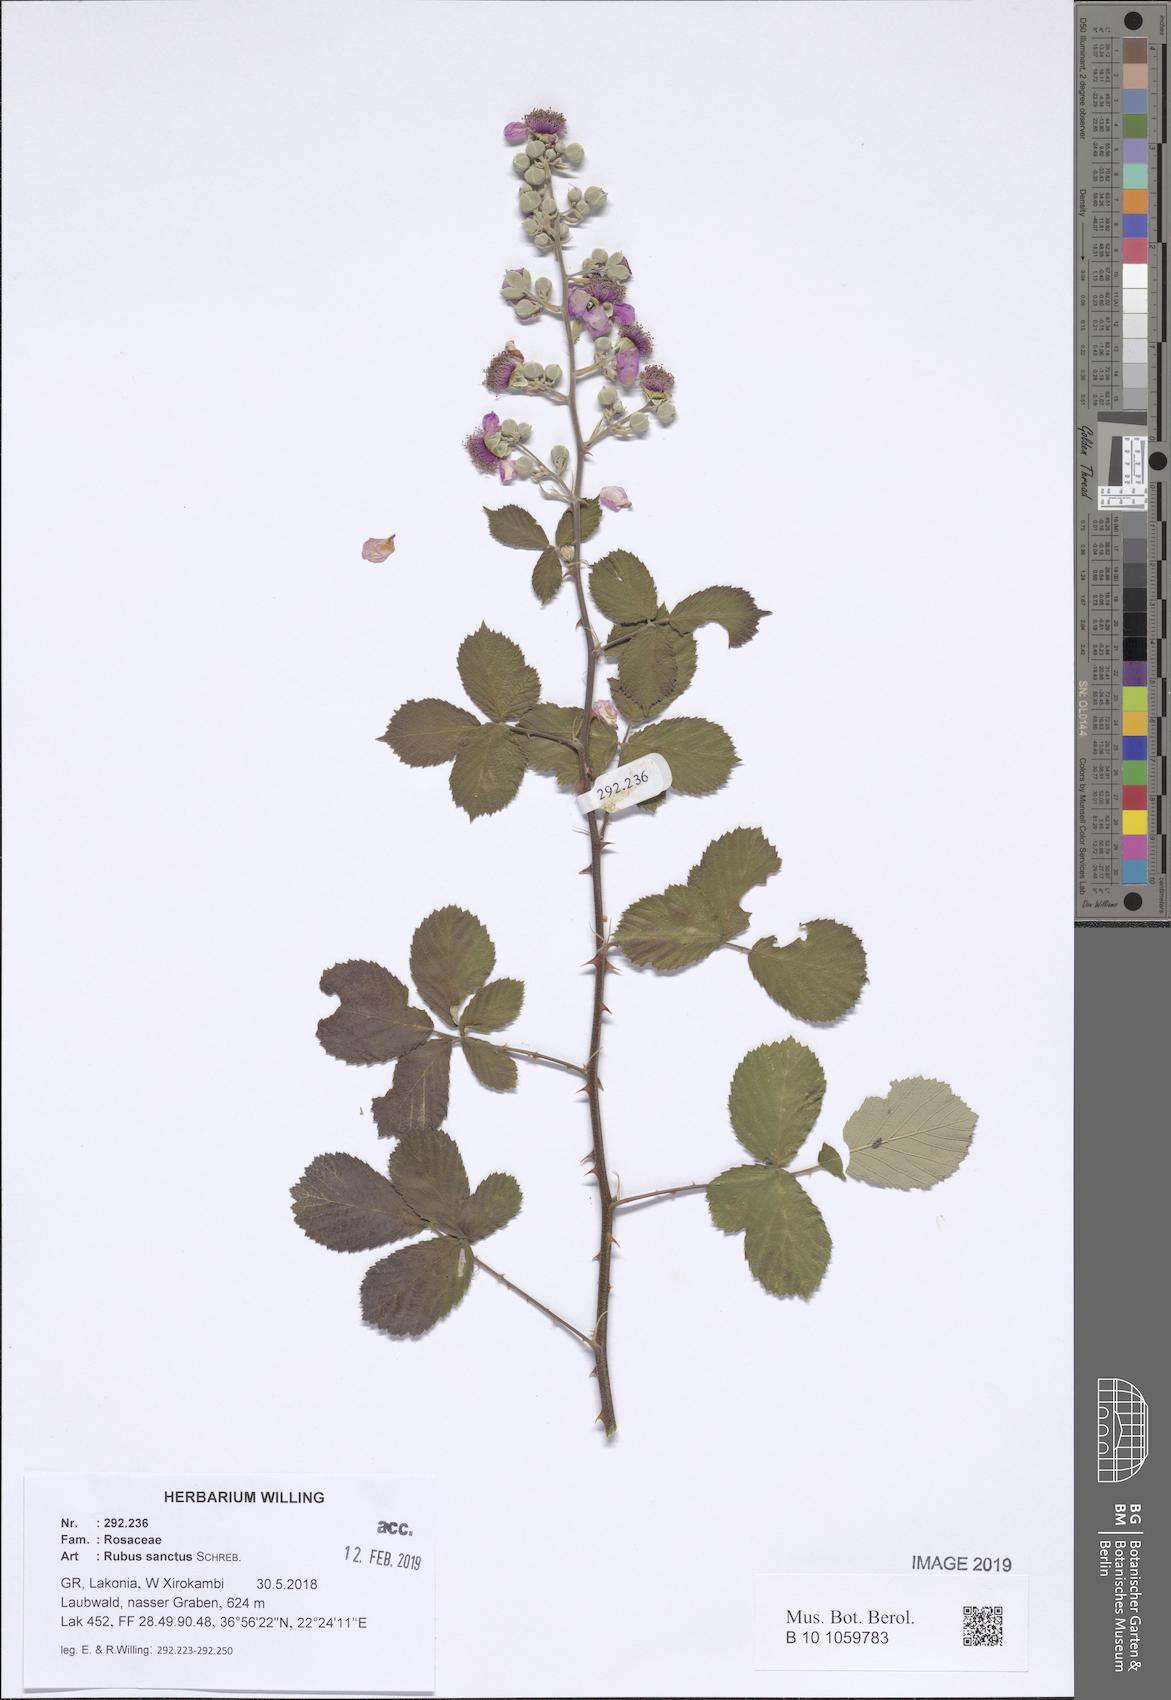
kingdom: Plantae
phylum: Tracheophyta
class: Magnoliopsida
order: Rosales
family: Rosaceae
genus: Rubus
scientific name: Rubus sanctus
